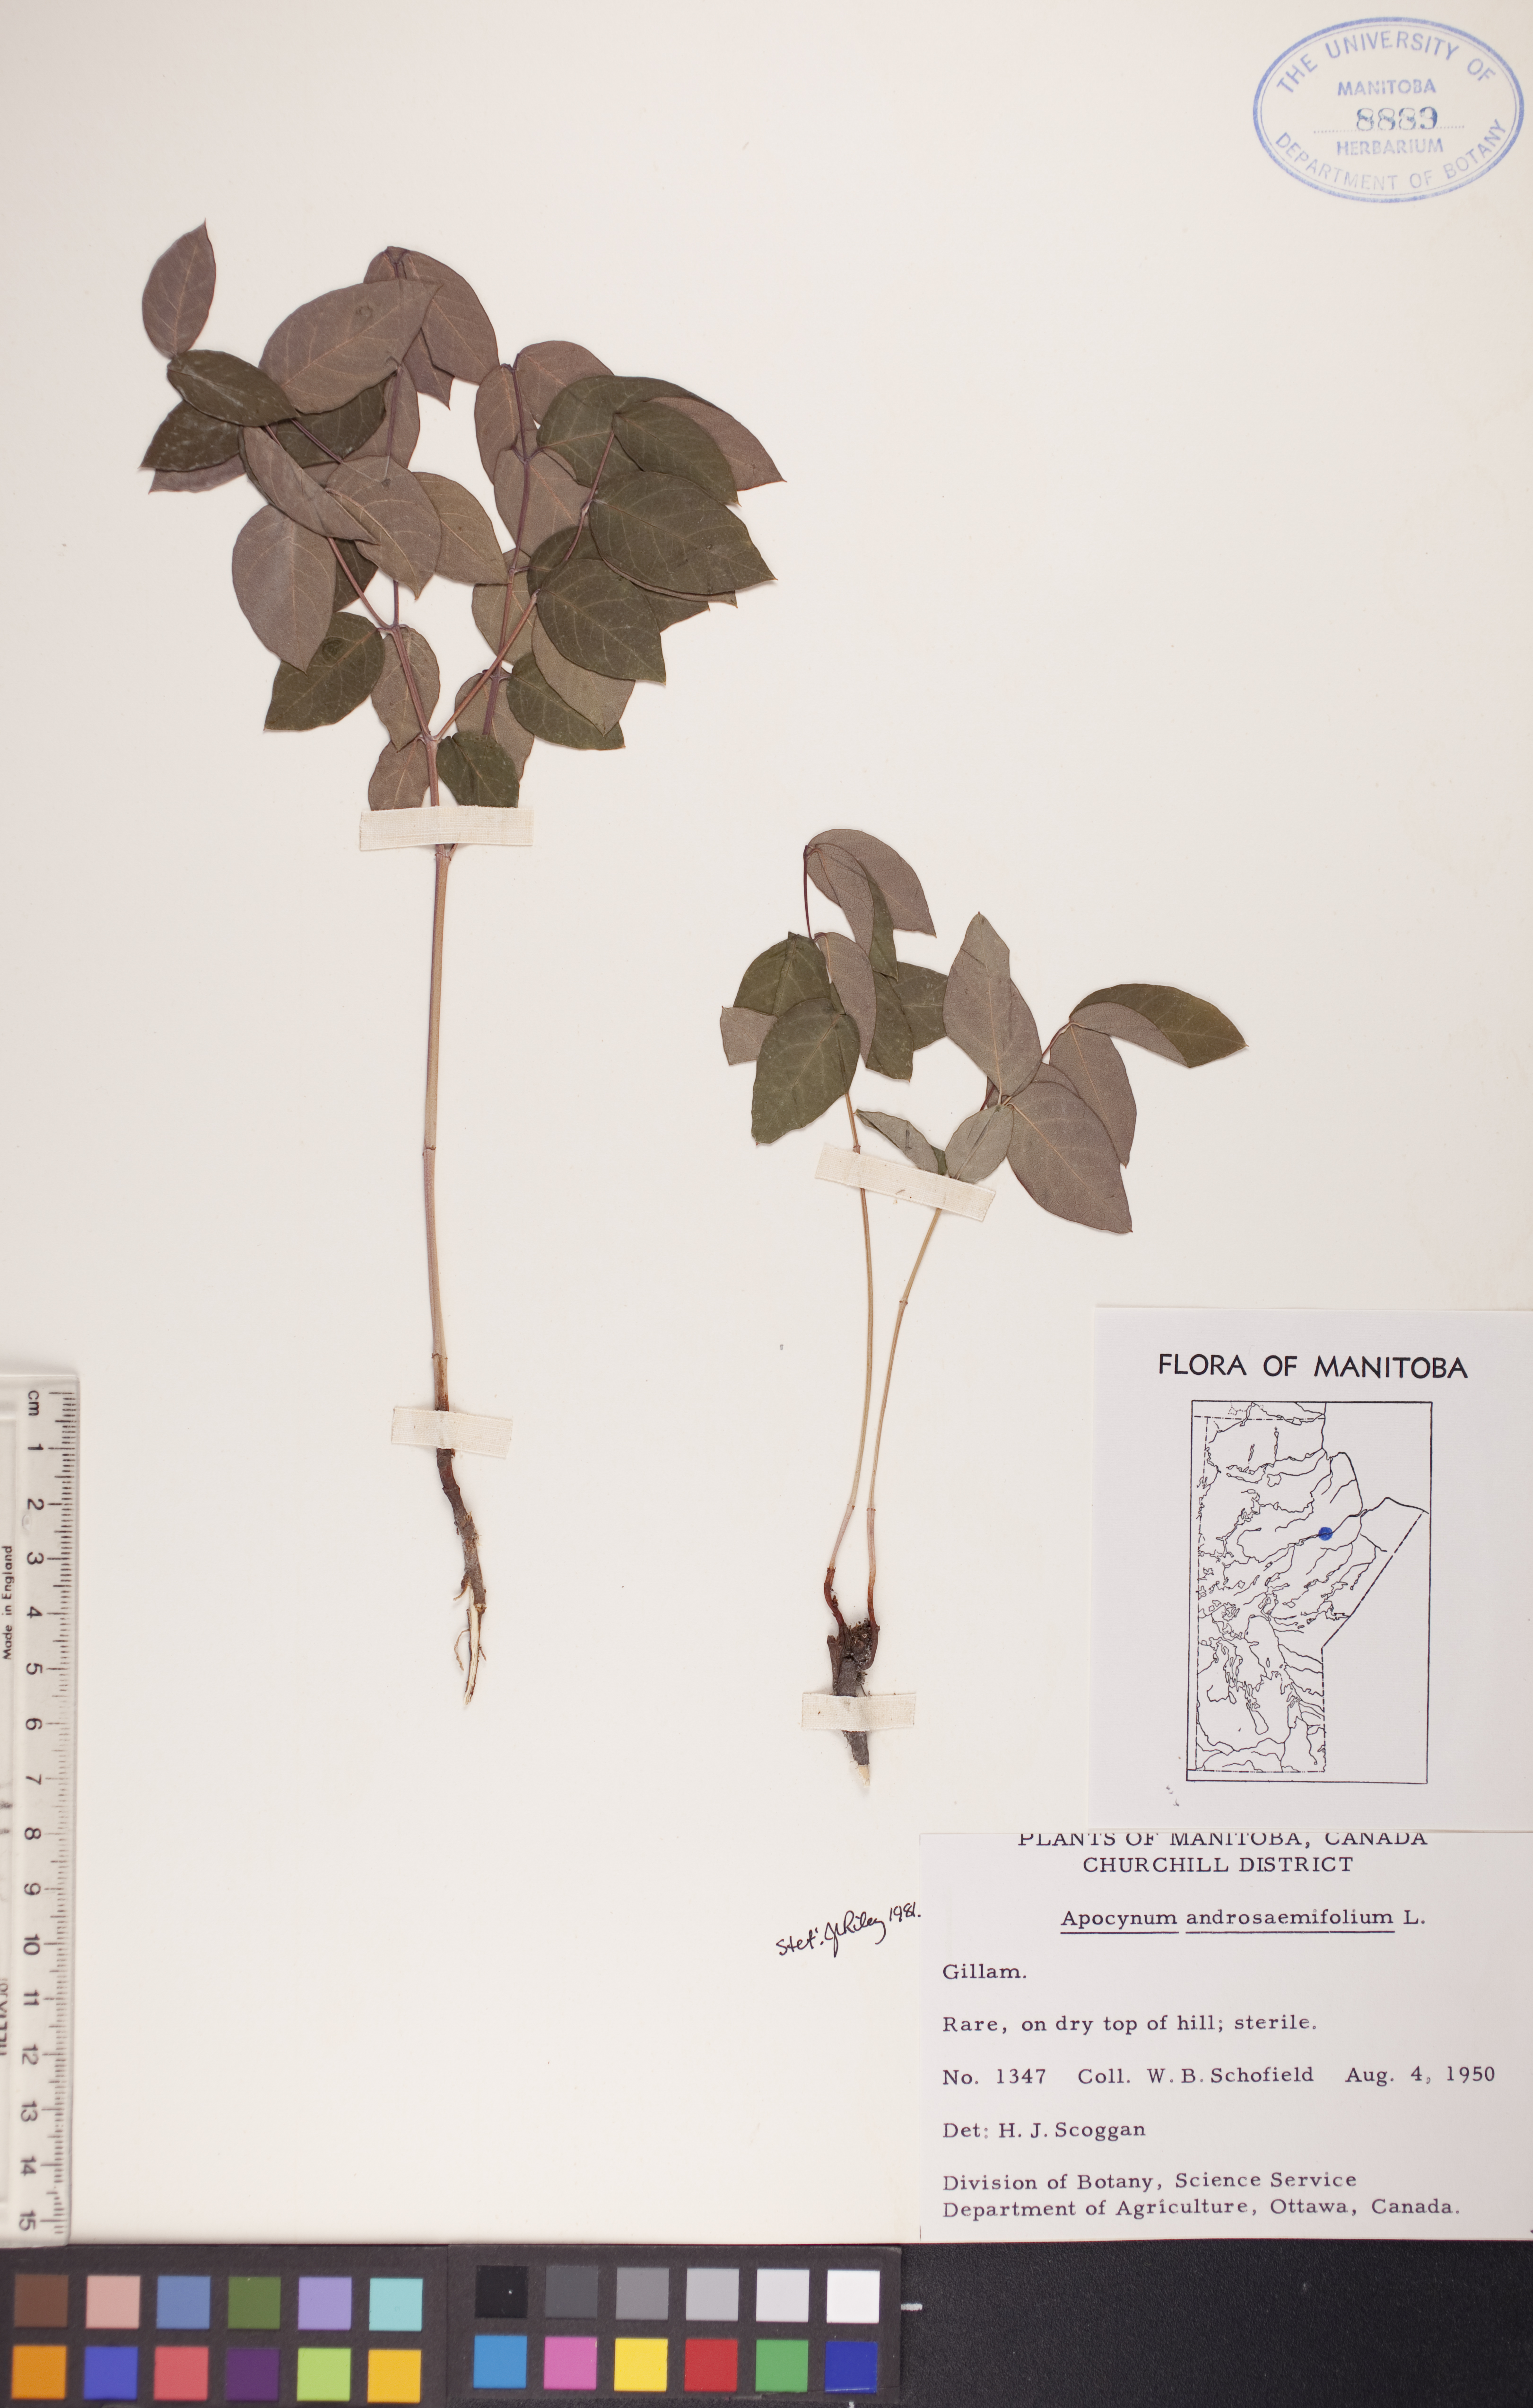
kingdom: Plantae
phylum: Tracheophyta
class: Magnoliopsida
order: Gentianales
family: Apocynaceae
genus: Apocynum
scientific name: Apocynum androsaemifolium
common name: Spreading dogbane
